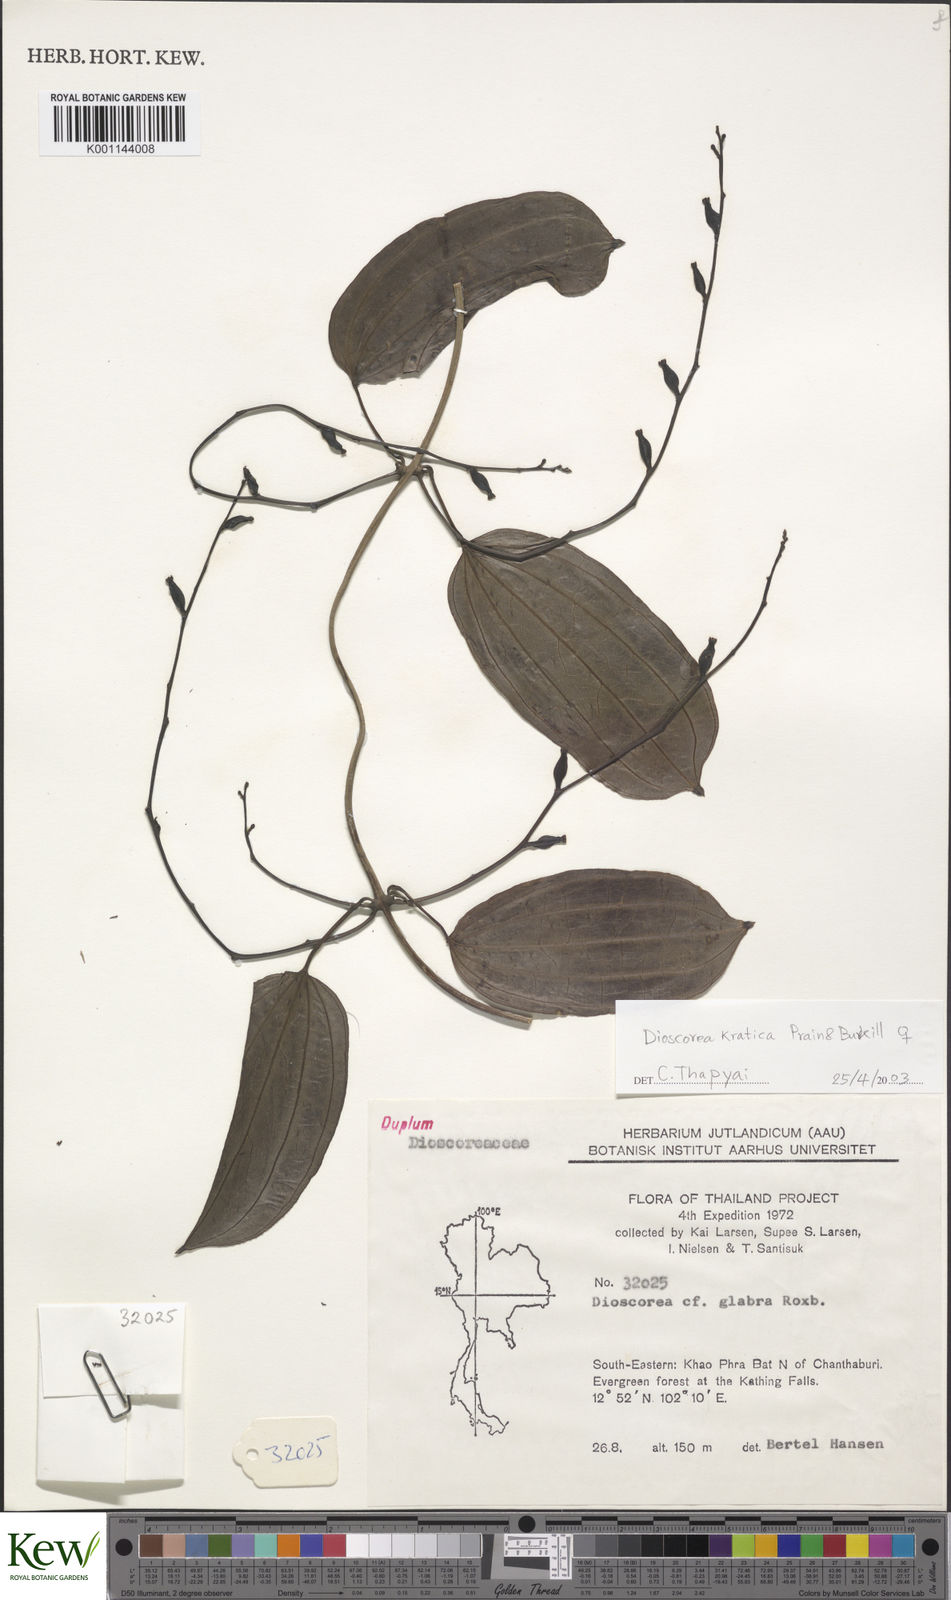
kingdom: Plantae
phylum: Tracheophyta
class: Liliopsida
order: Dioscoreales
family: Dioscoreaceae
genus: Dioscorea
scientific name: Dioscorea kratica
